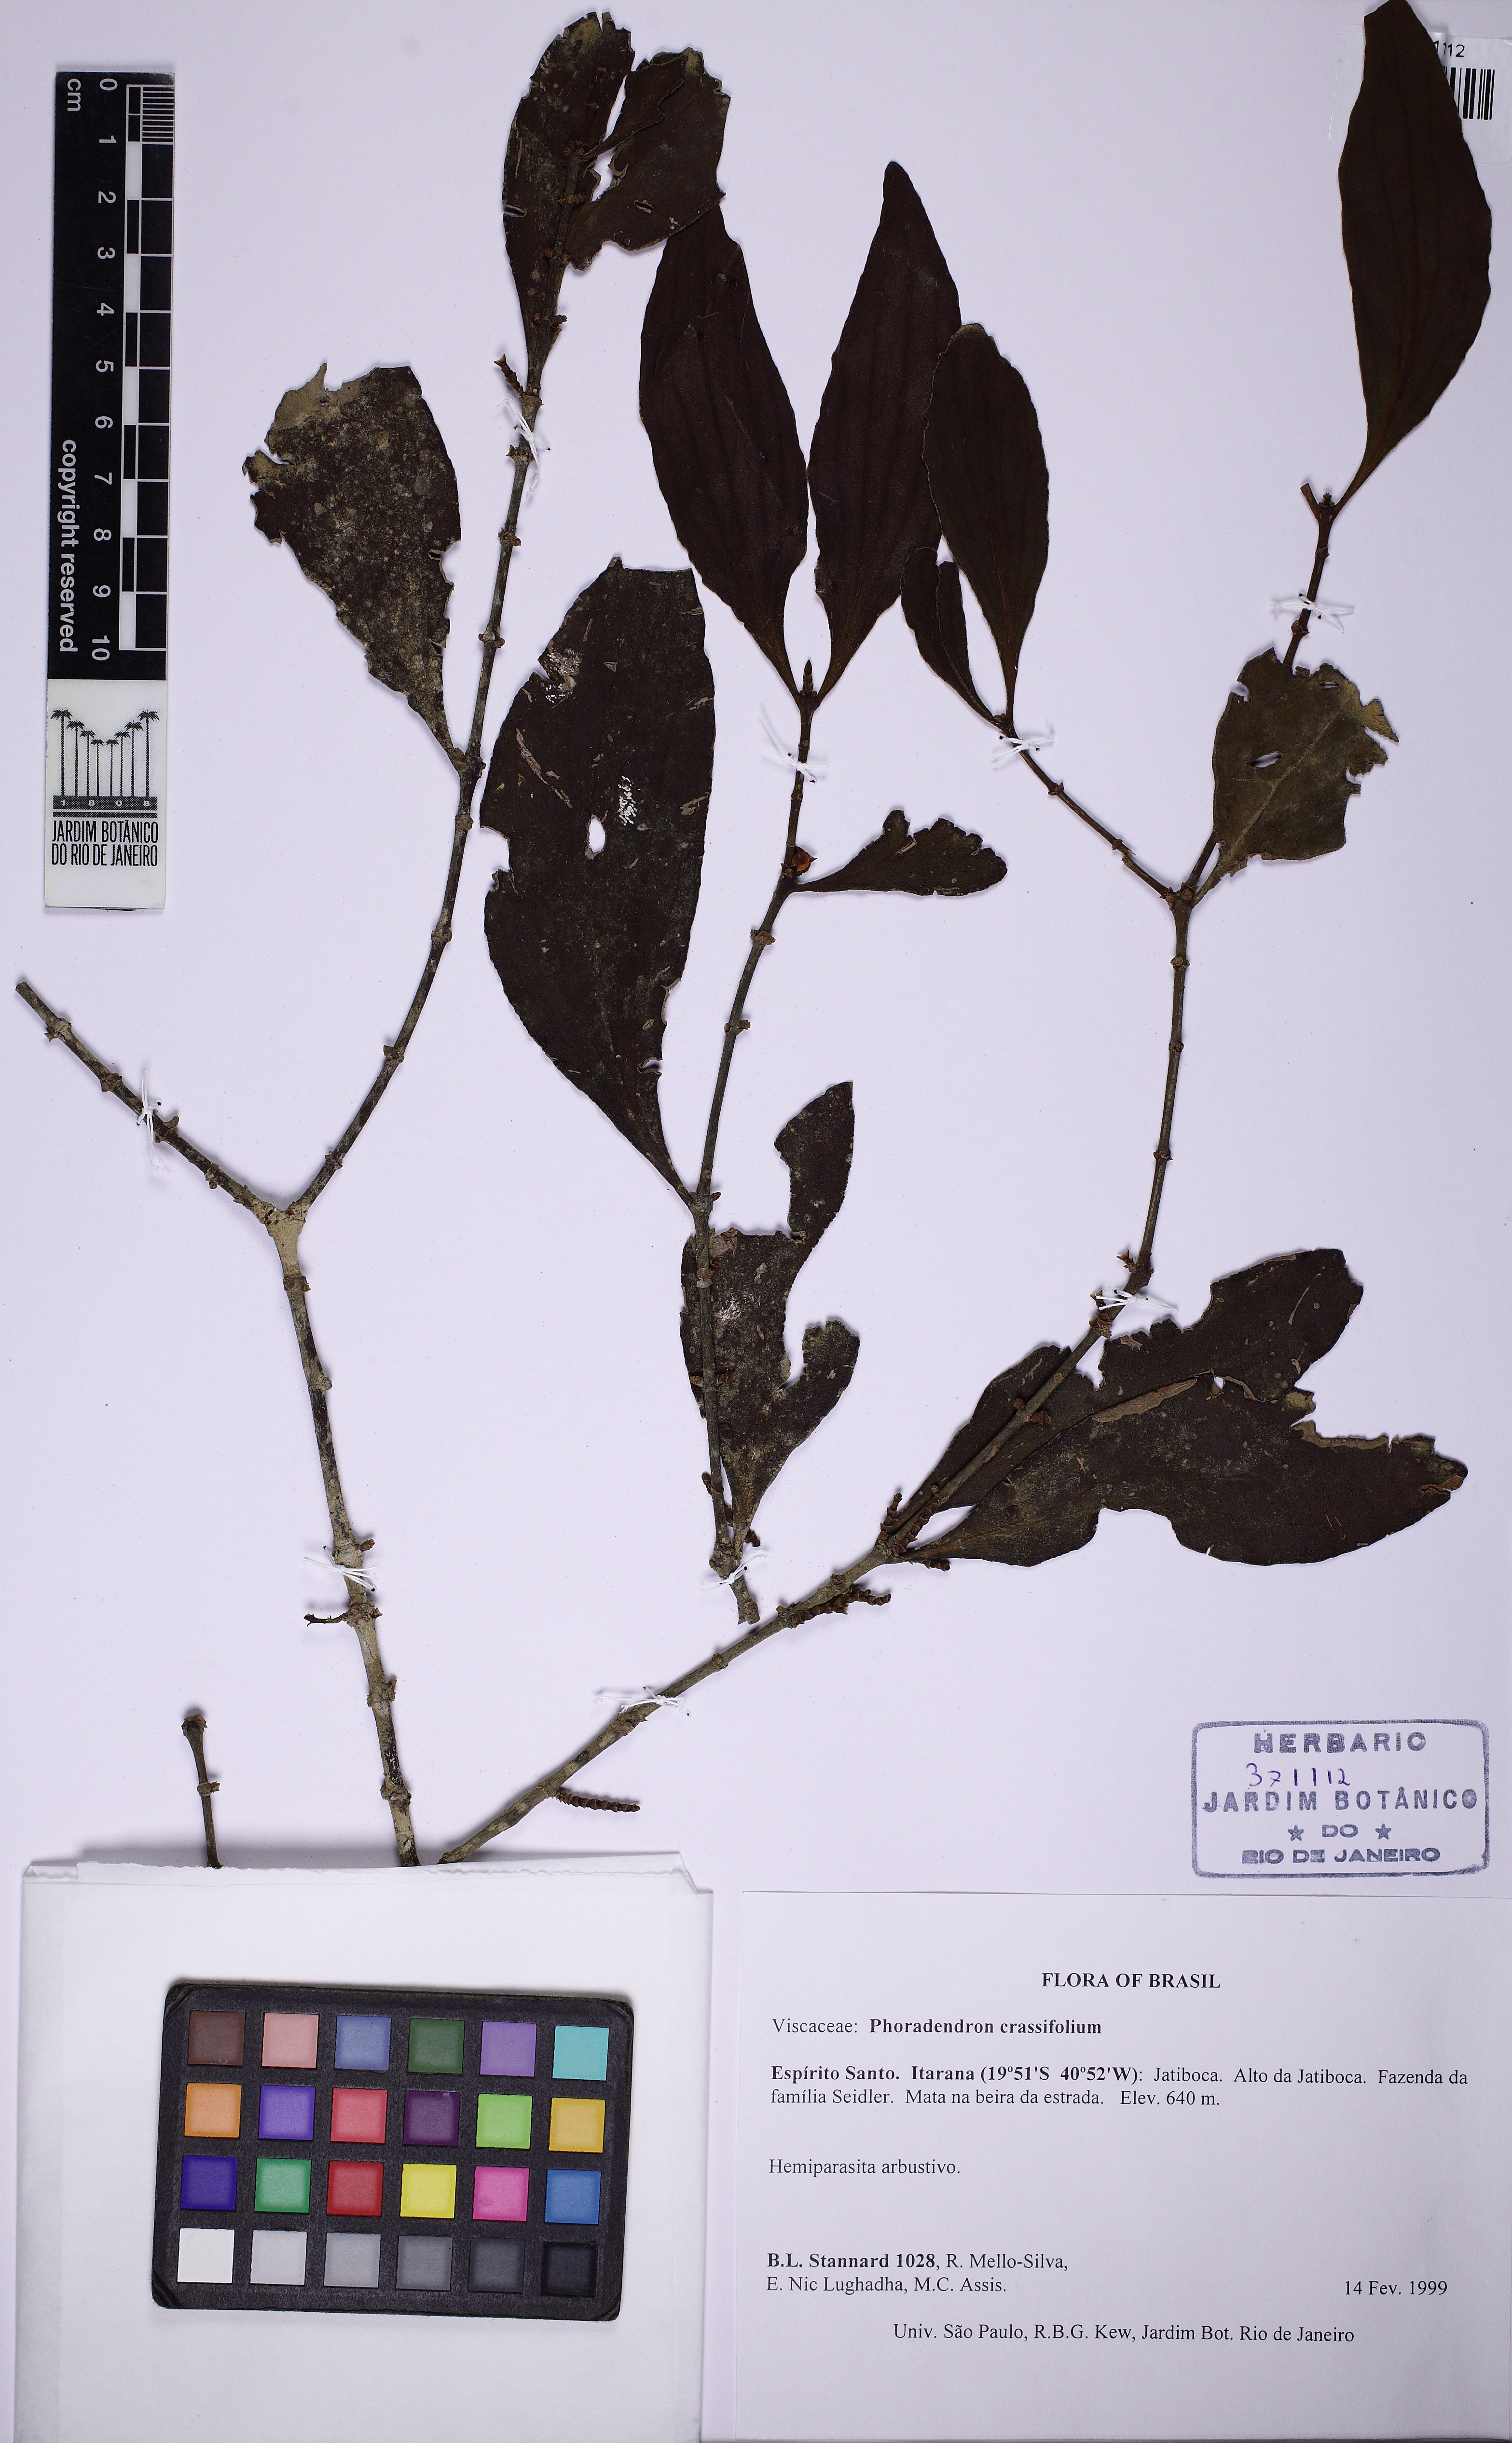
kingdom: Plantae
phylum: Tracheophyta
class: Magnoliopsida
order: Santalales
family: Viscaceae
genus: Phoradendron
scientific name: Phoradendron
